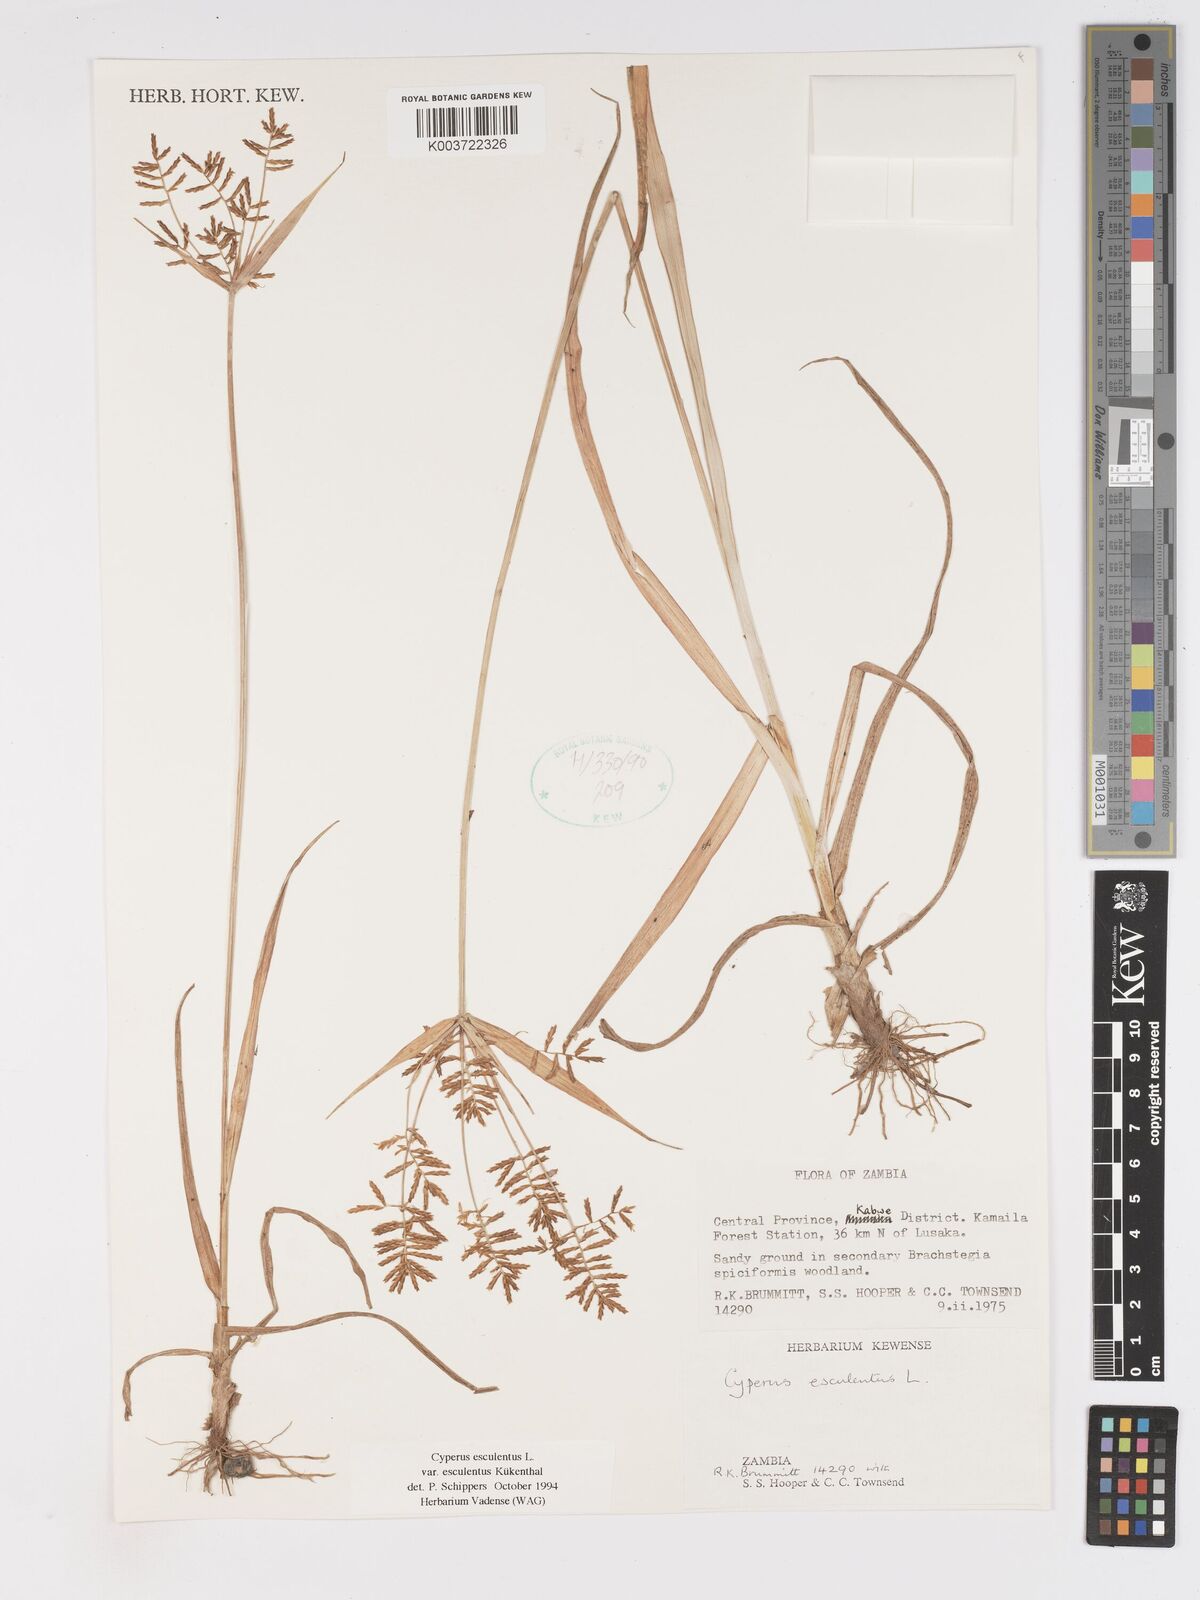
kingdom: Plantae
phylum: Tracheophyta
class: Liliopsida
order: Poales
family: Cyperaceae
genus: Cyperus
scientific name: Cyperus esculentus
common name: Yellow nutsedge
